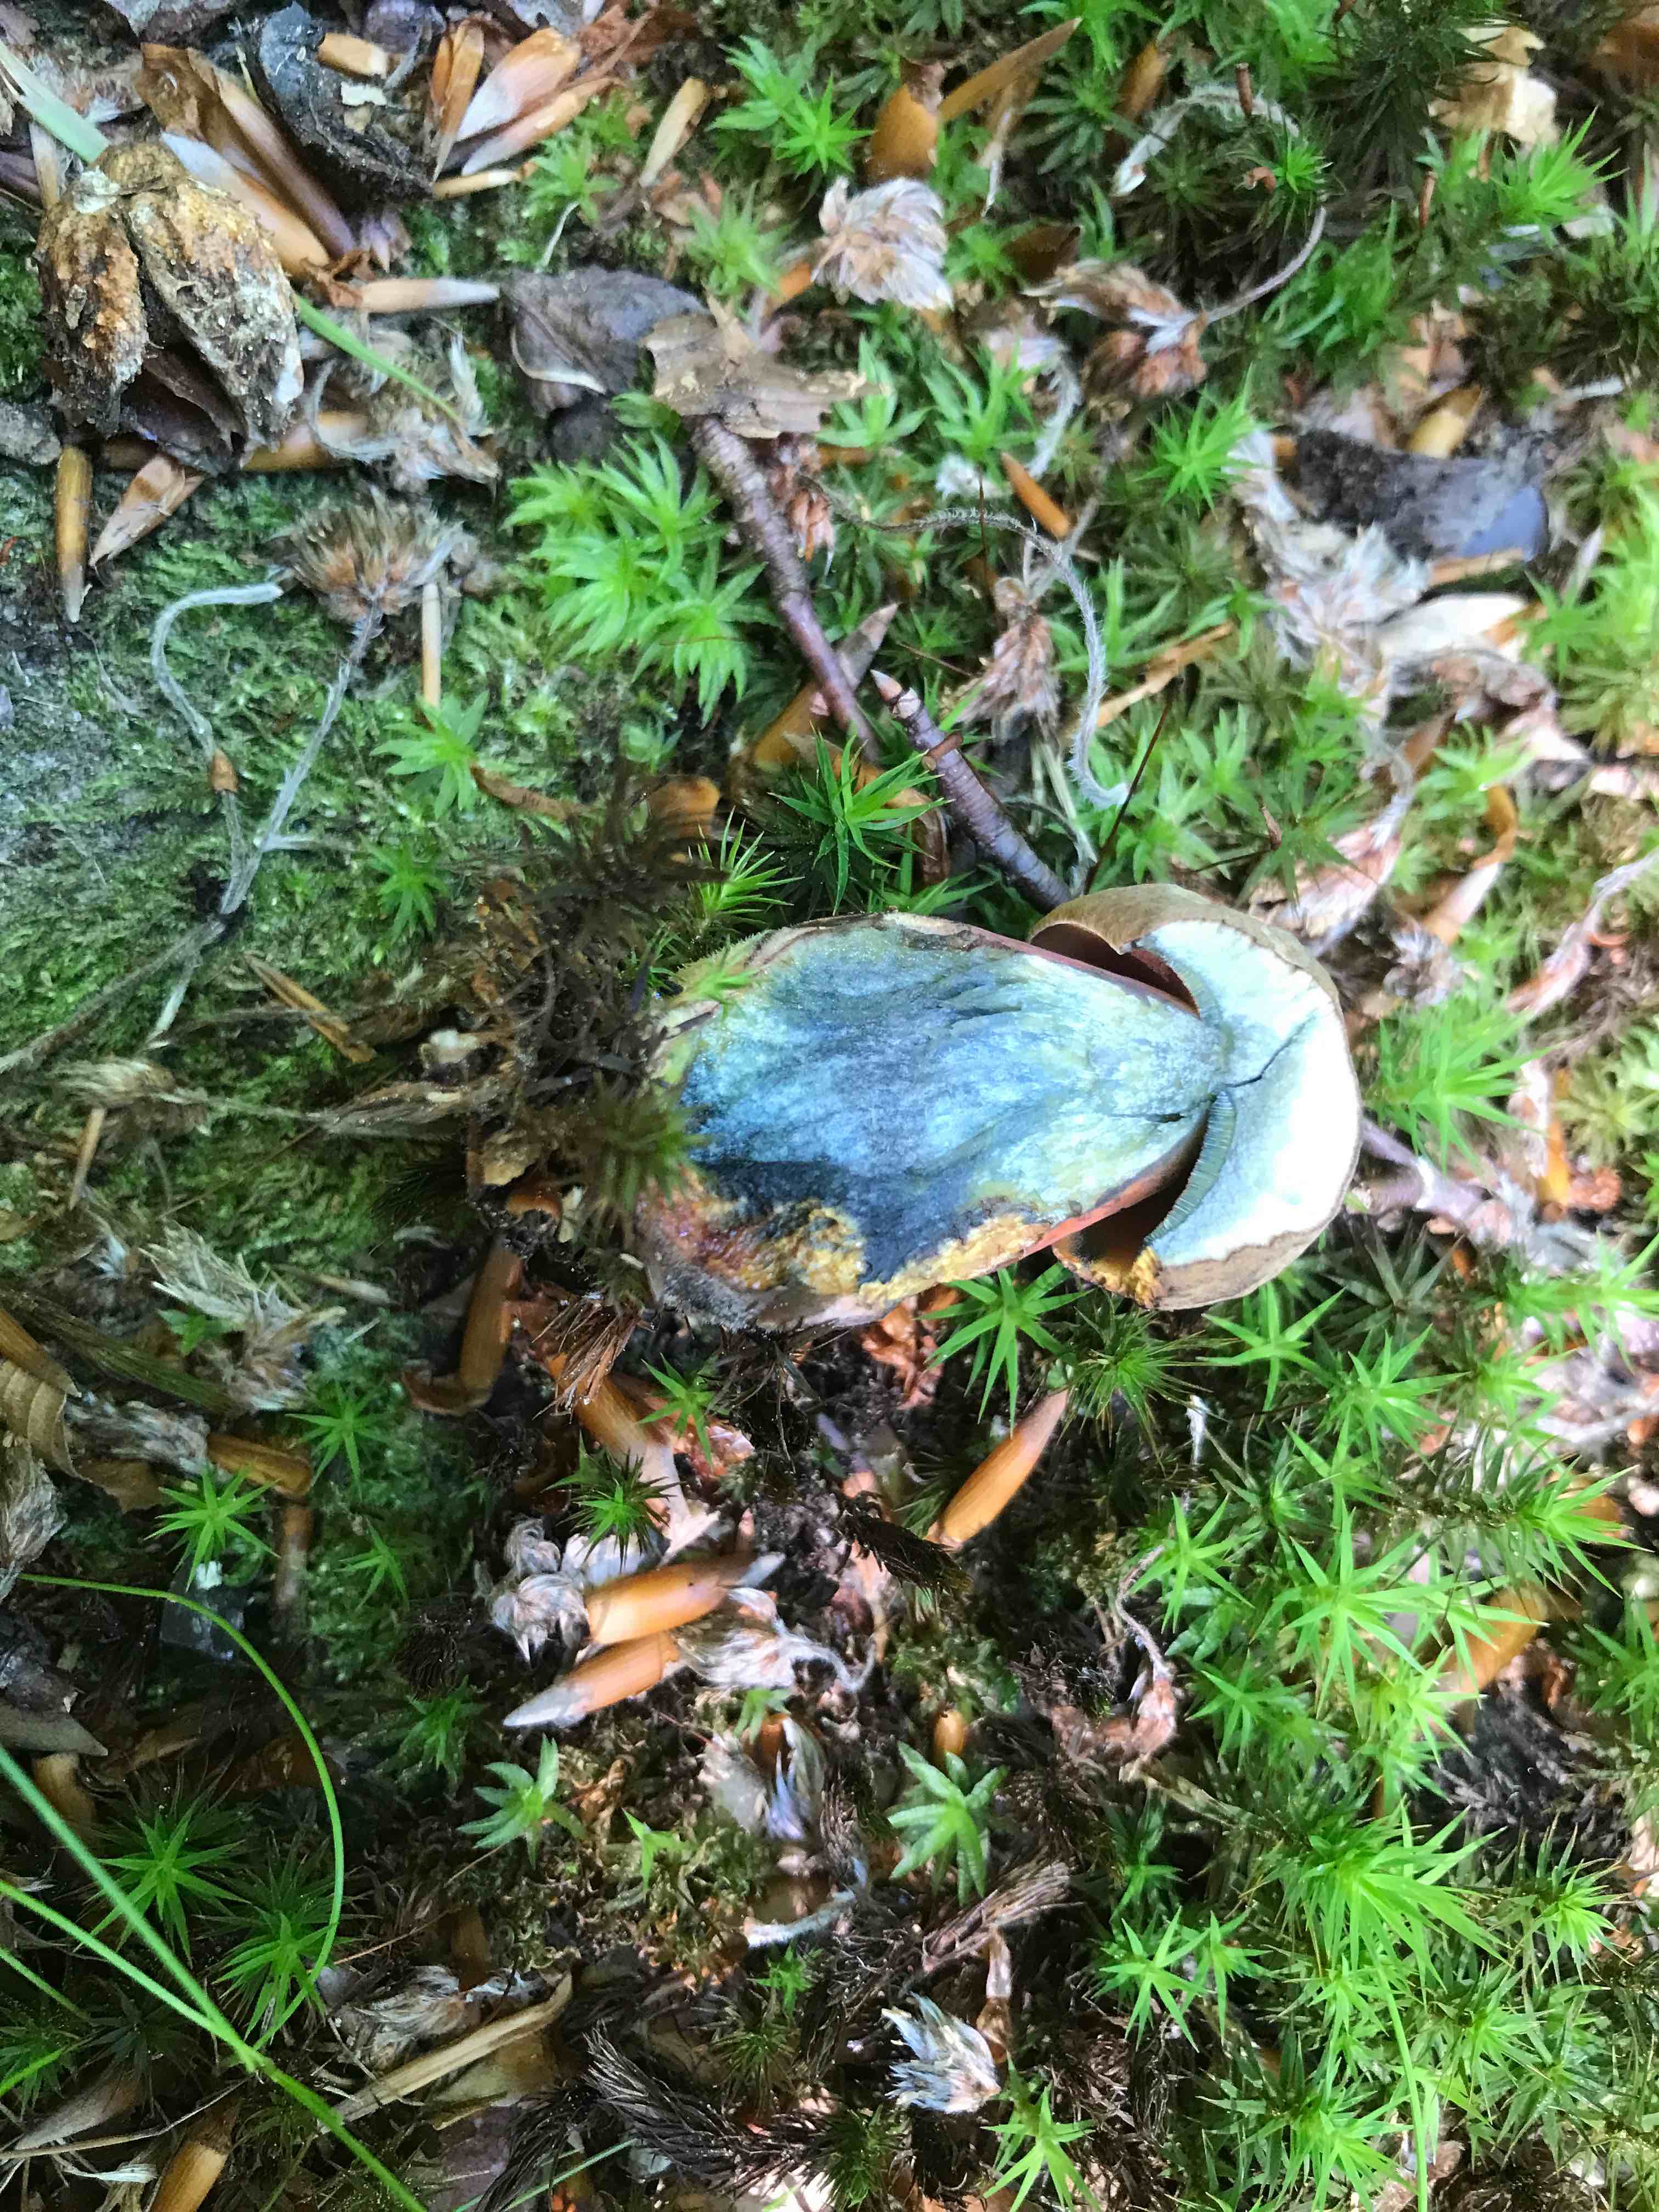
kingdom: Fungi
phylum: Basidiomycota
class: Agaricomycetes
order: Boletales
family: Boletaceae
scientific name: Boletaceae
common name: rørhatfamilien
